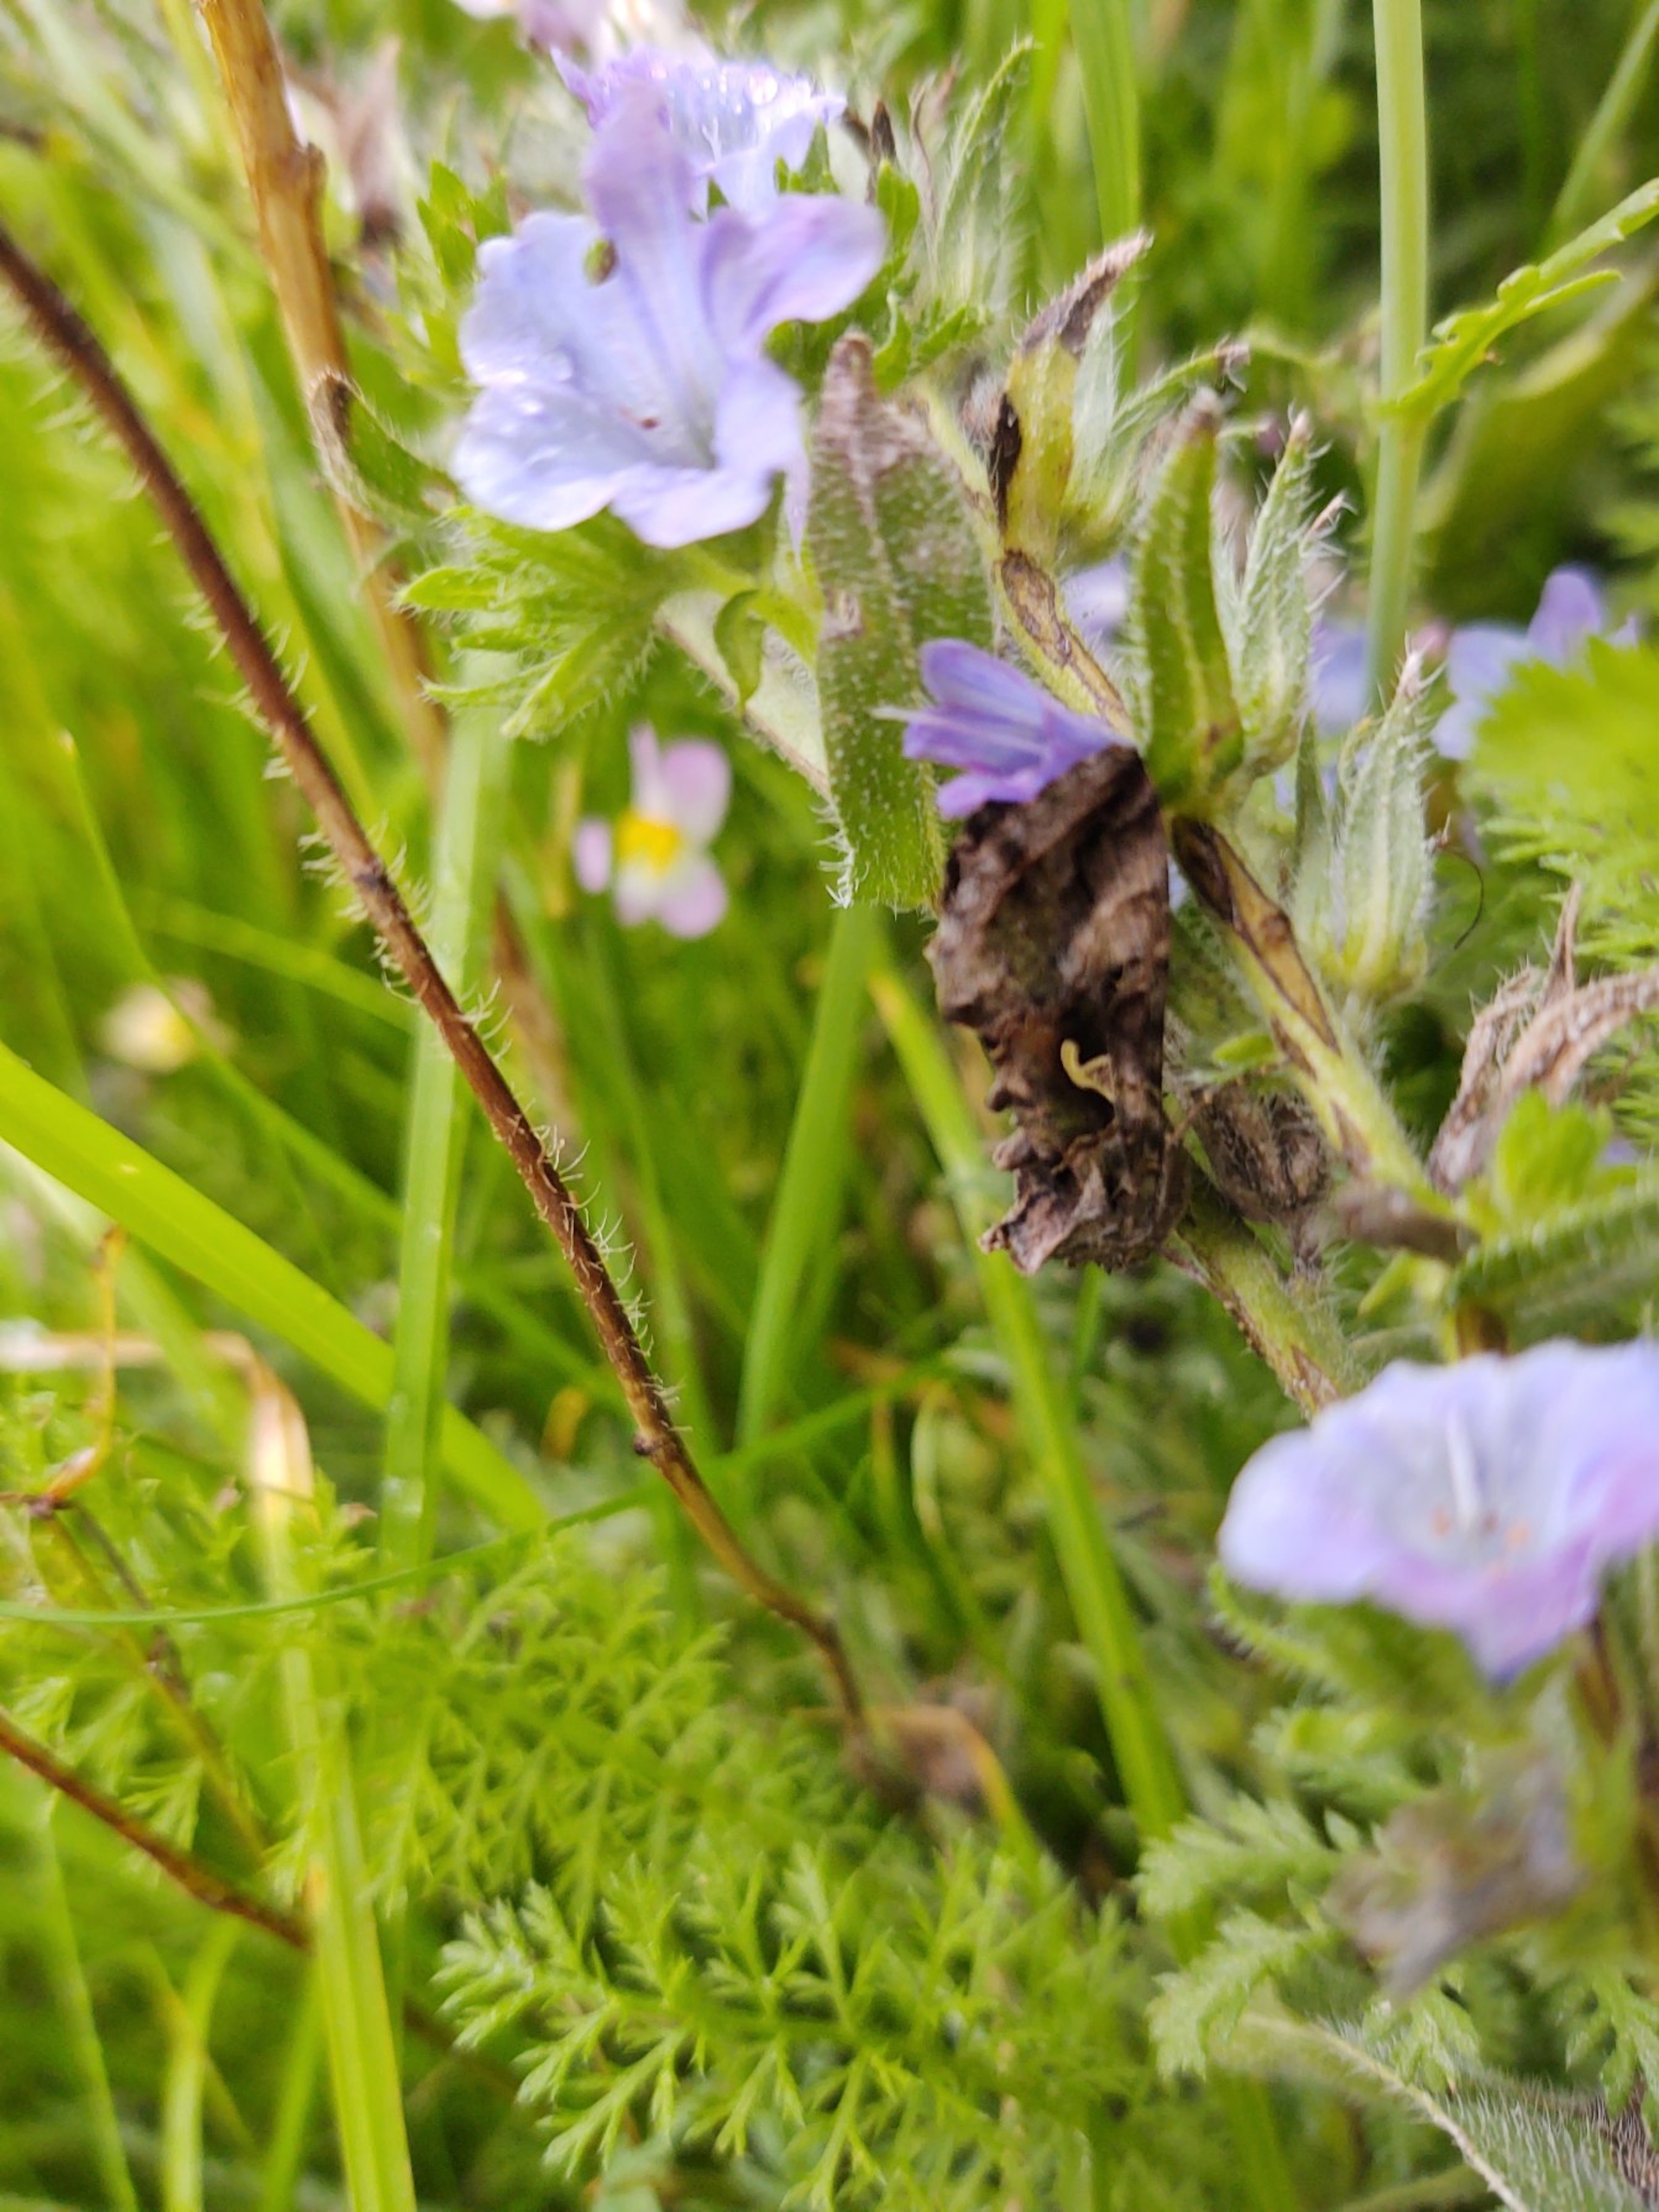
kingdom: Animalia
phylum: Arthropoda
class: Insecta
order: Lepidoptera
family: Noctuidae
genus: Autographa
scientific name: Autographa gamma
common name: Gammaugle
